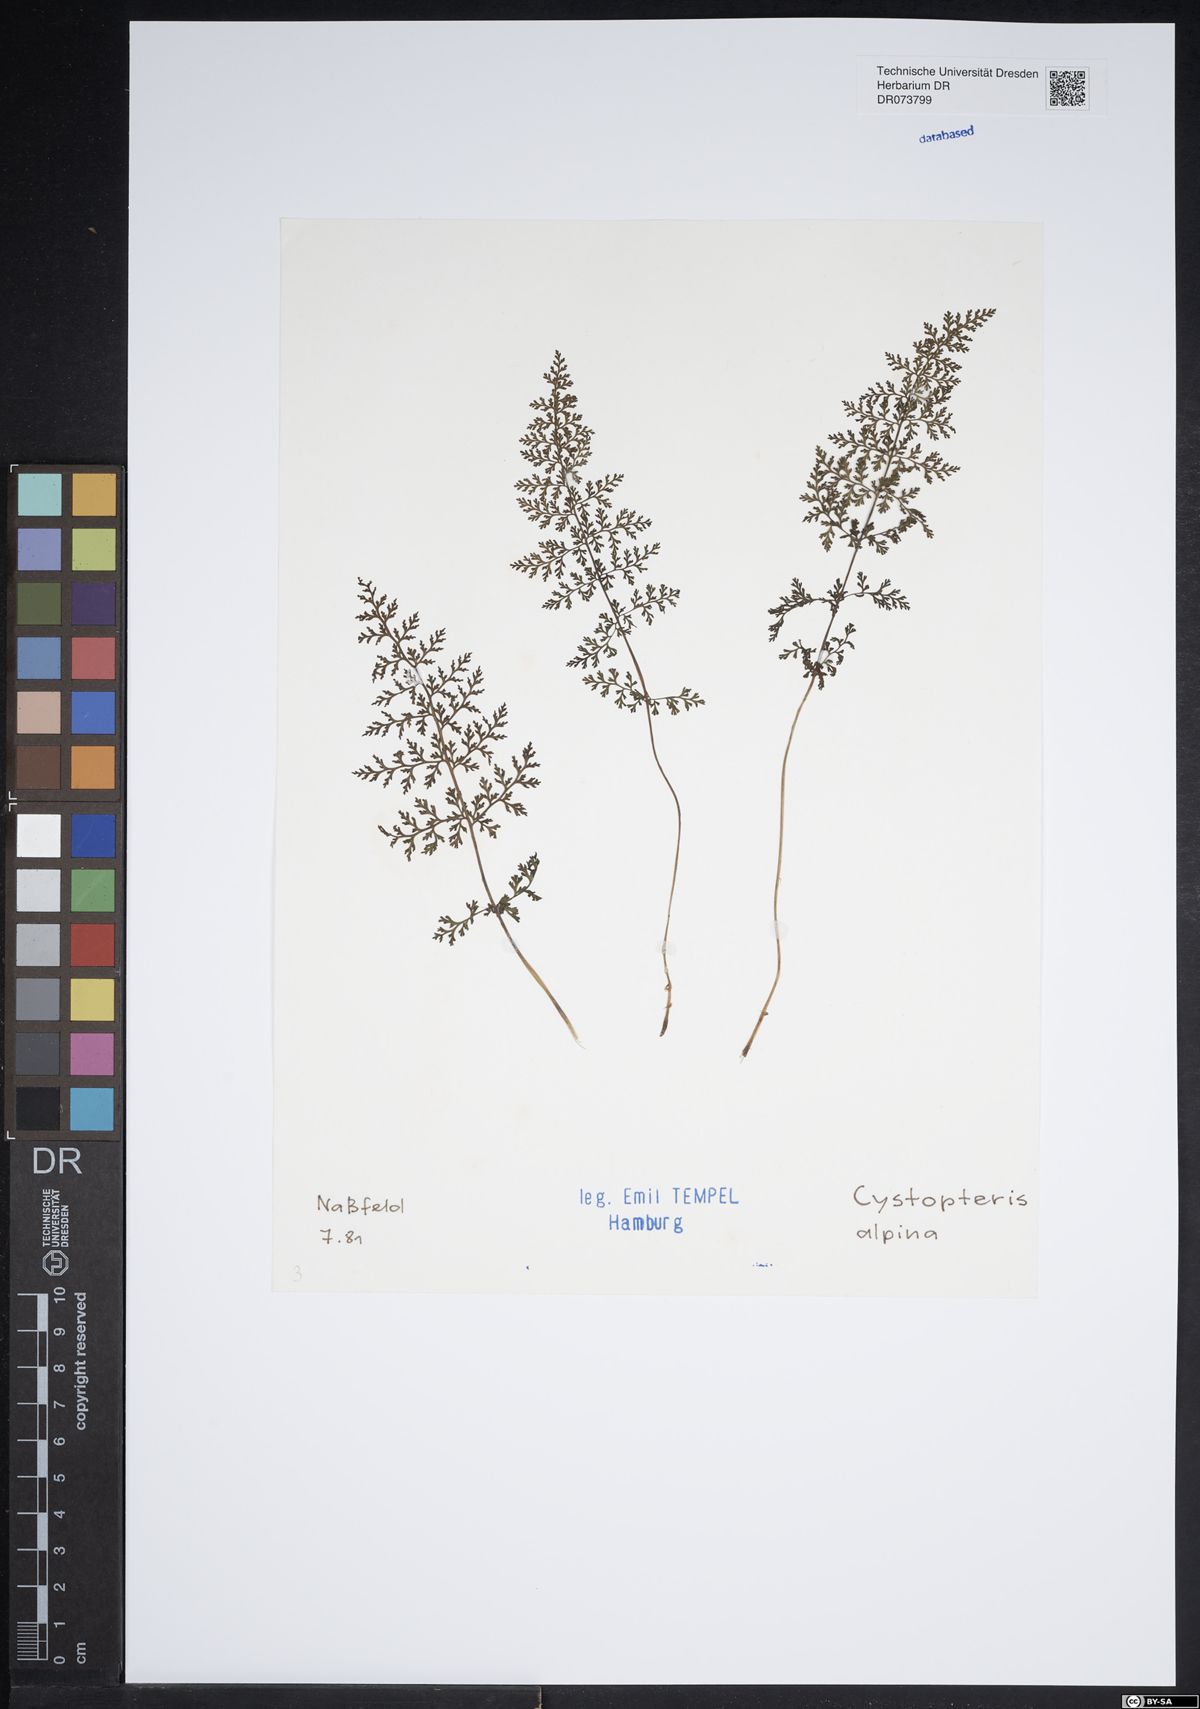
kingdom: Plantae
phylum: Tracheophyta
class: Polypodiopsida
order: Polypodiales
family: Cystopteridaceae
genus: Cystopteris
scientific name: Cystopteris alpina
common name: Alpine bladder-fern
